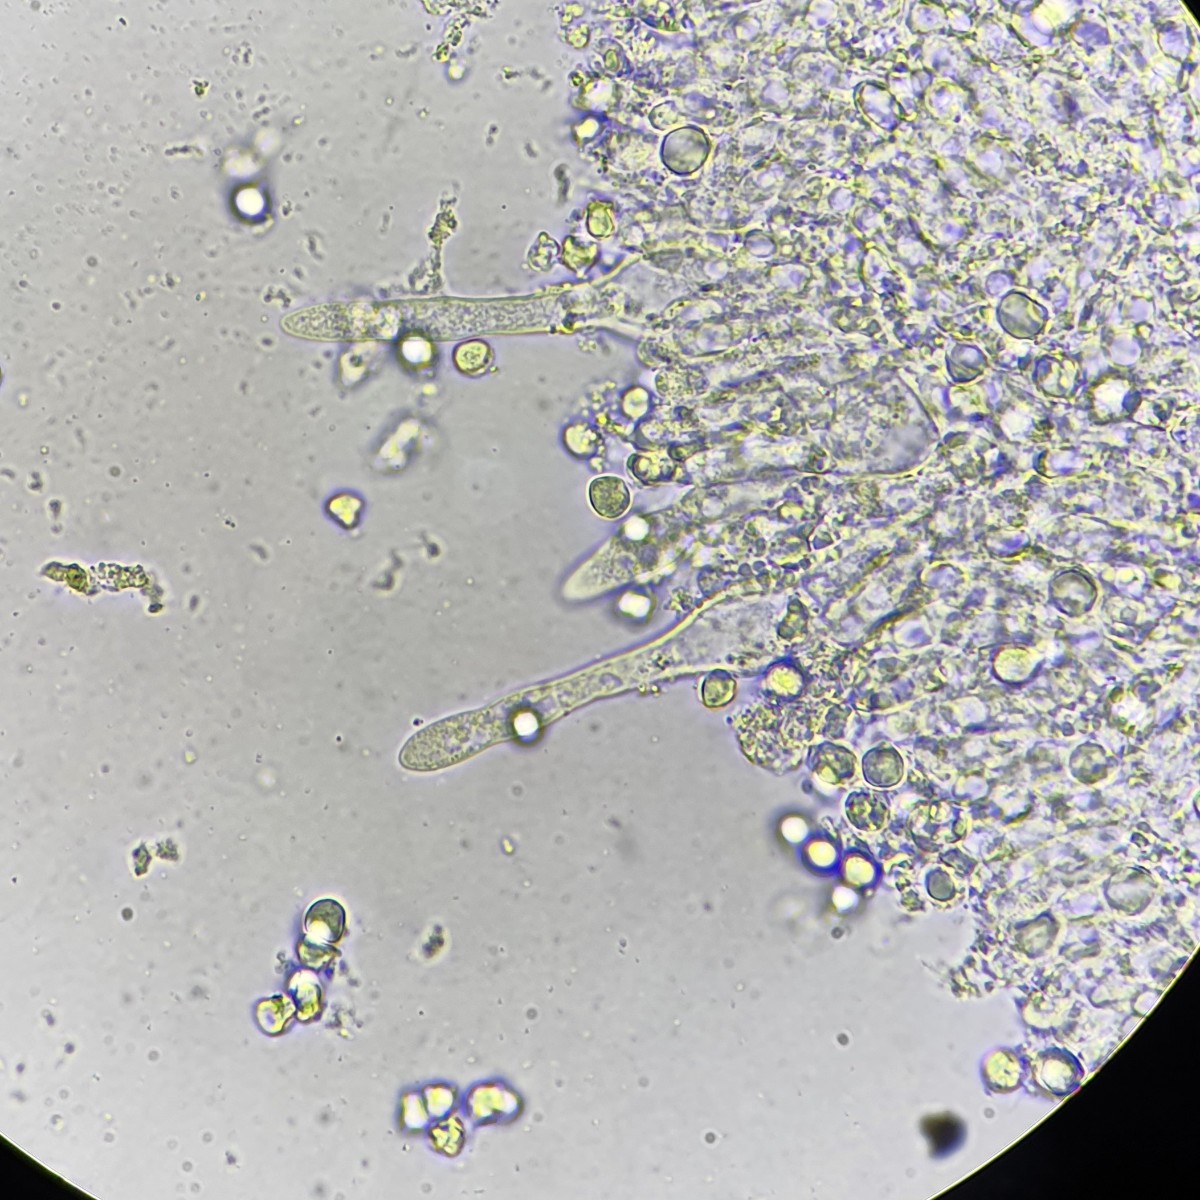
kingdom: Fungi
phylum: Basidiomycota
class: Agaricomycetes
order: Agaricales
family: Tricholomataceae
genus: Mycenella
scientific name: Mycenella salicina
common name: glatsporet dughat
